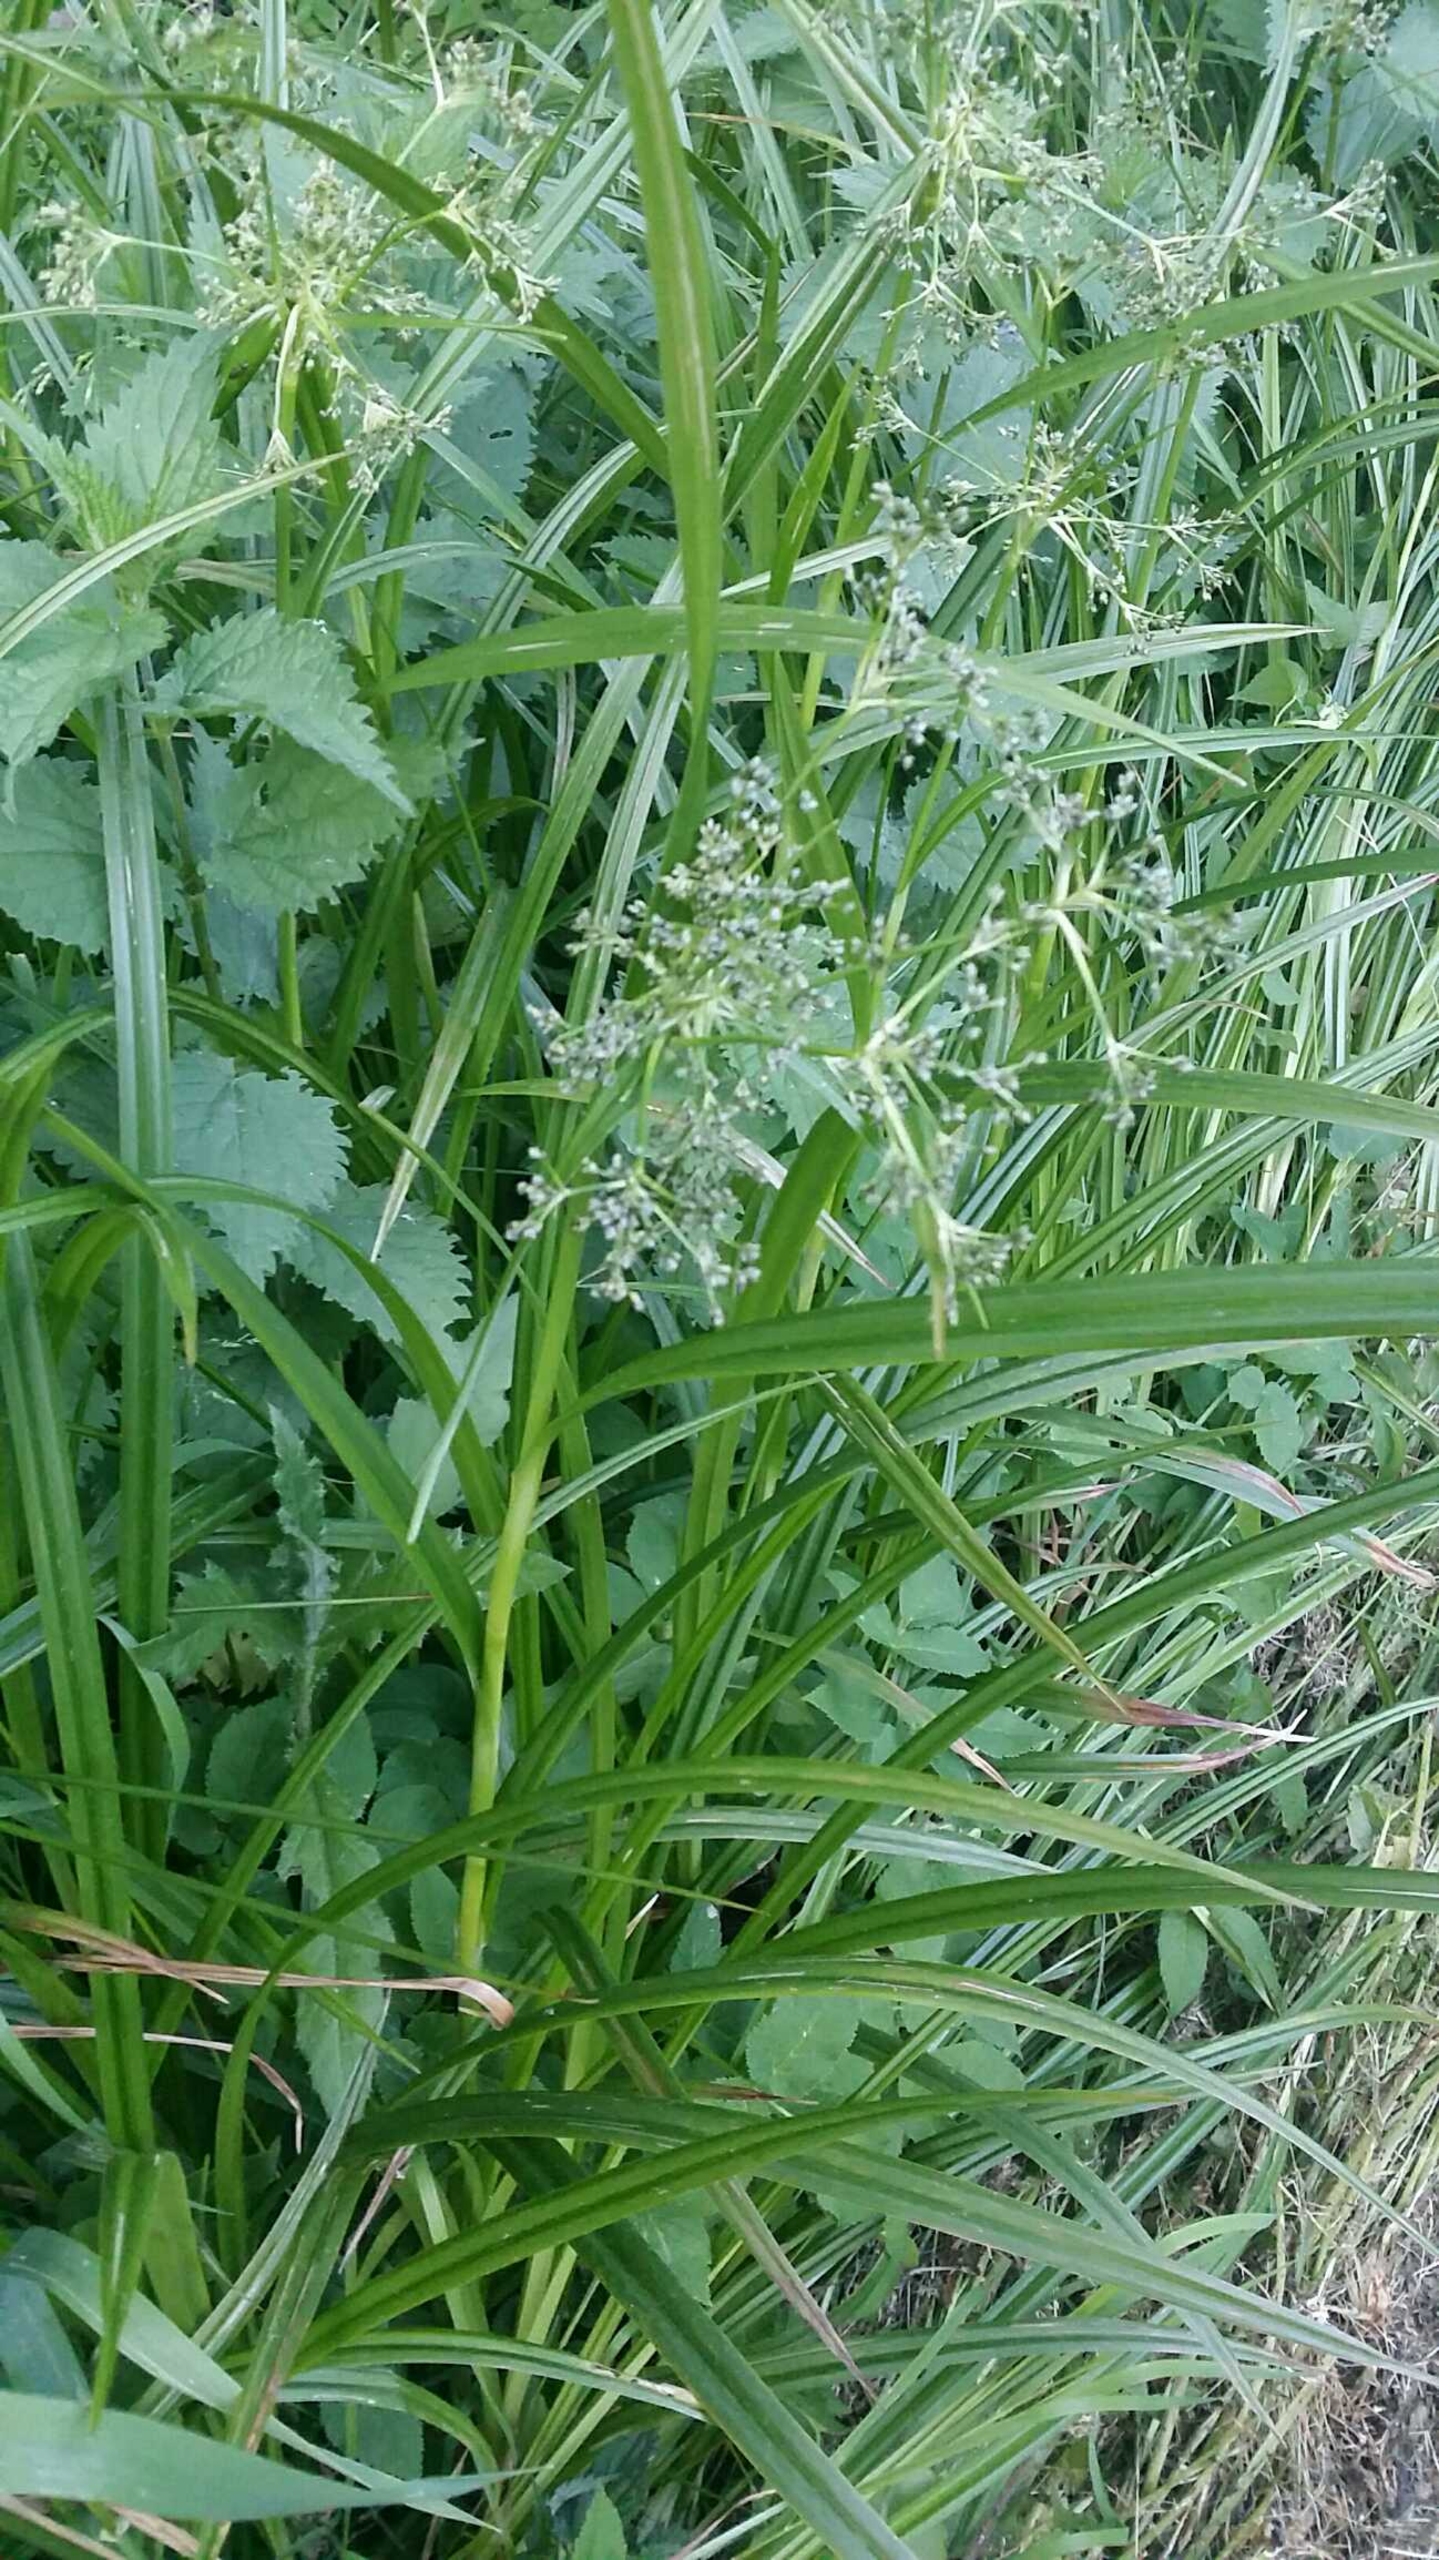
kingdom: Plantae
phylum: Tracheophyta
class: Liliopsida
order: Poales
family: Cyperaceae
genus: Scirpus
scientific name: Scirpus sylvaticus
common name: Skov-kogleaks
